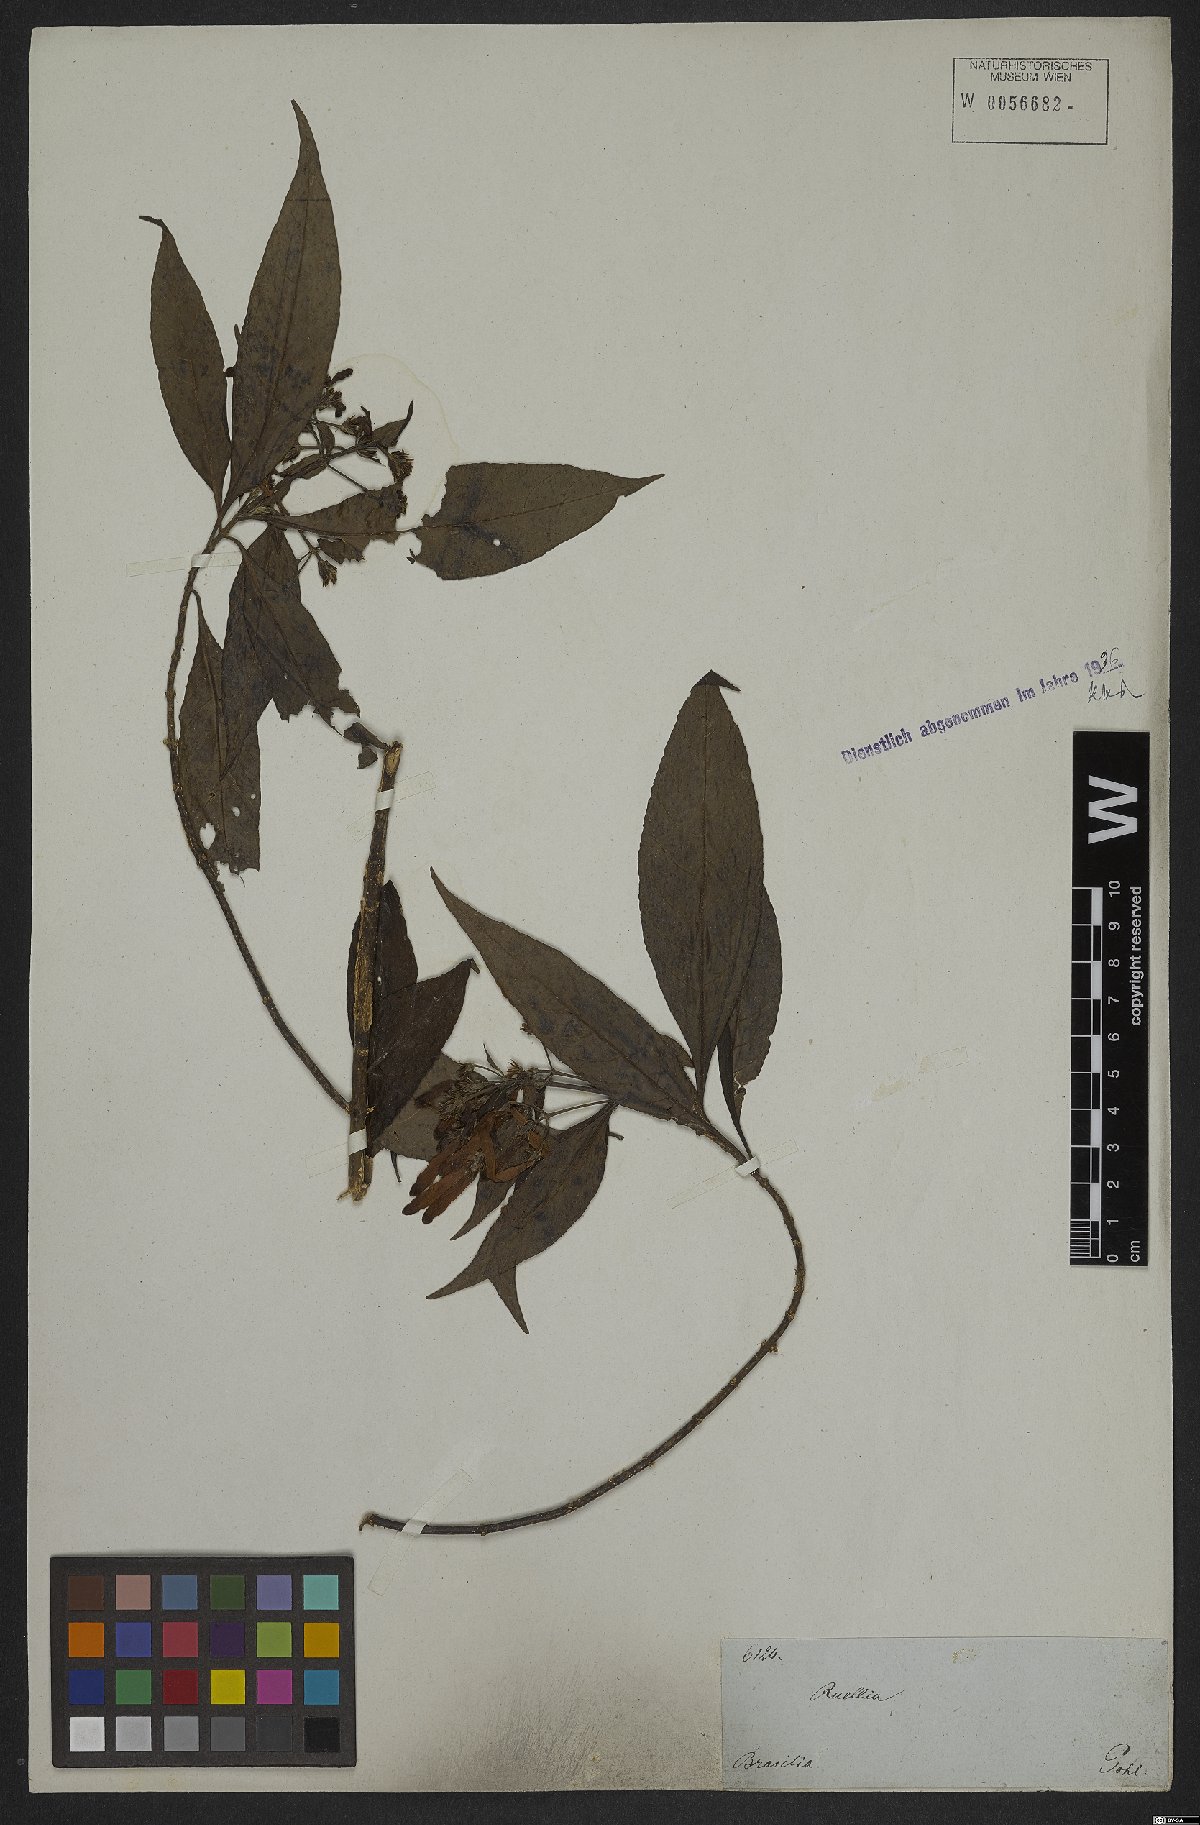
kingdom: Plantae
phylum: Tracheophyta
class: Magnoliopsida
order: Lamiales
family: Acanthaceae
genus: Aphelandra
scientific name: Aphelandra schottiana
